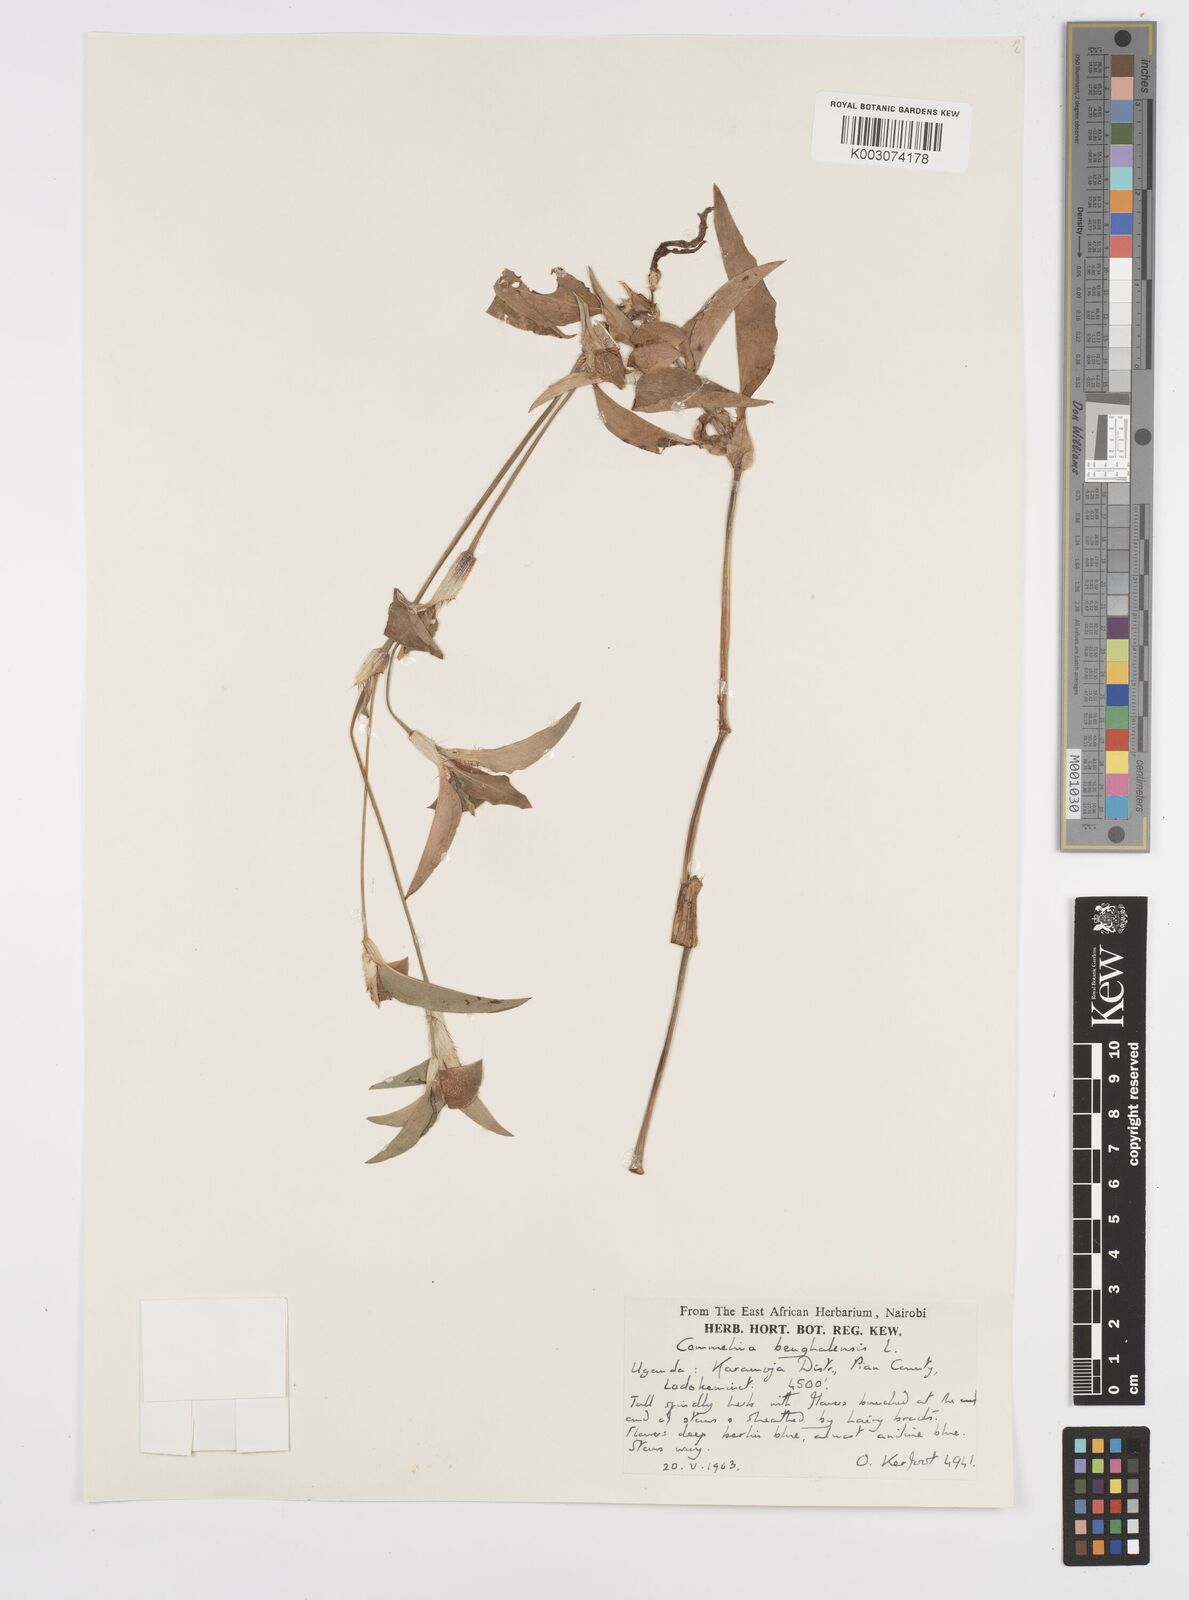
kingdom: Plantae
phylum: Tracheophyta
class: Liliopsida
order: Commelinales
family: Commelinaceae
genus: Commelina
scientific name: Commelina benghalensis
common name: Jio
